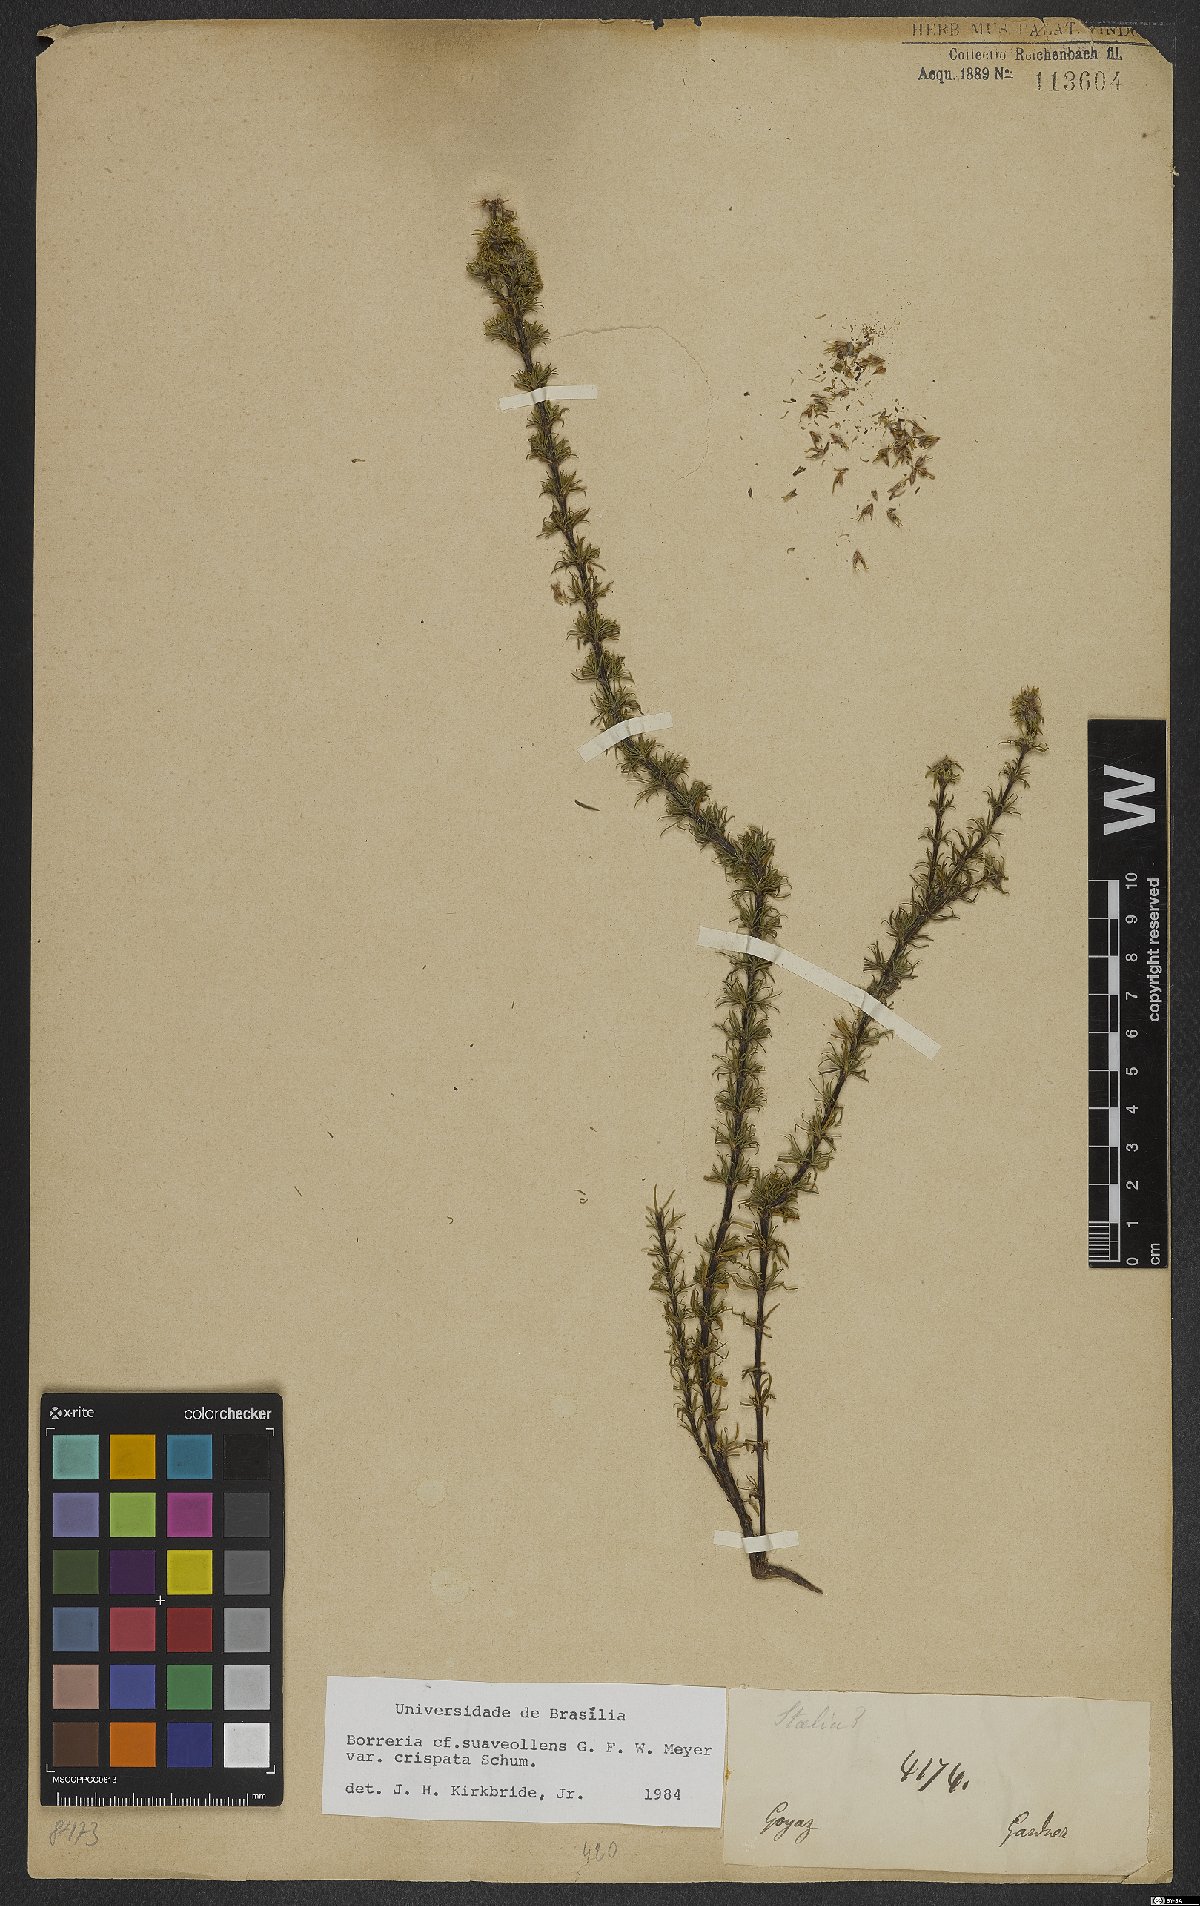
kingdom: Plantae
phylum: Tracheophyta
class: Magnoliopsida
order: Gentianales
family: Rubiaceae
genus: Spermacoce
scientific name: Spermacoce suaveolens
